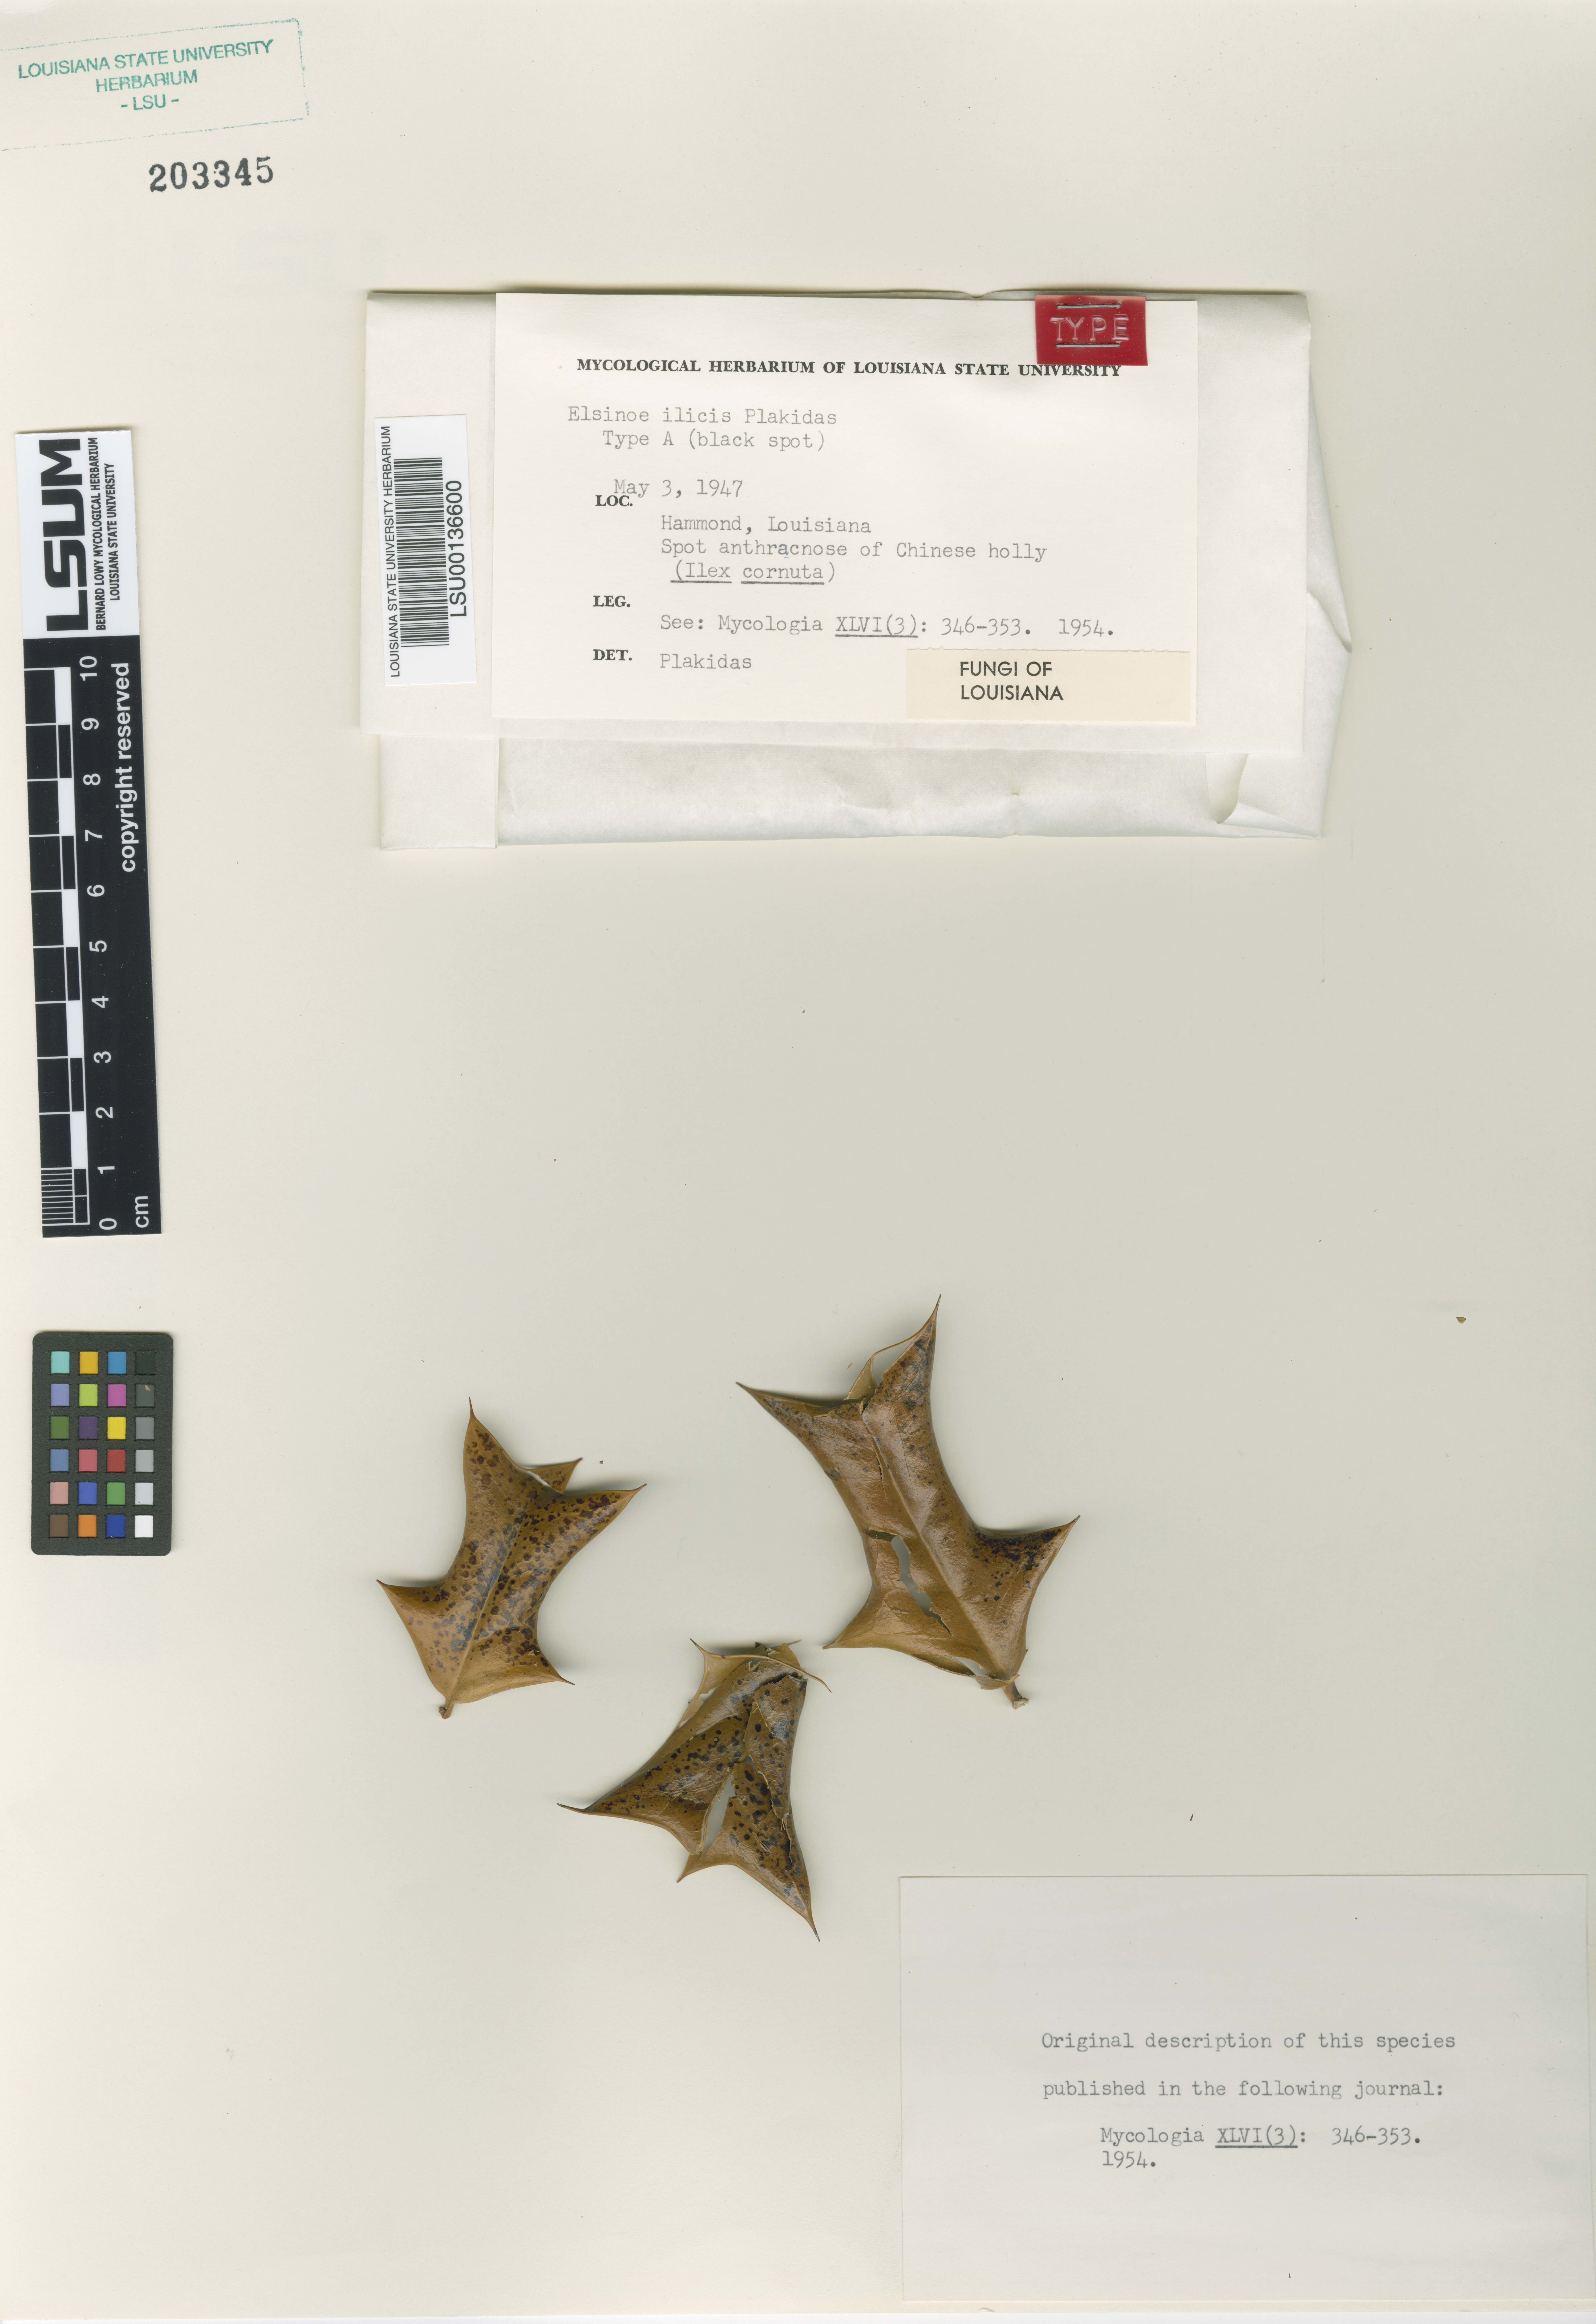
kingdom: Fungi
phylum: Ascomycota
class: Dothideomycetes
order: Myriangiales
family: Elsinoaceae
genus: Elsinoe
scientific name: Elsinoe ilicis
